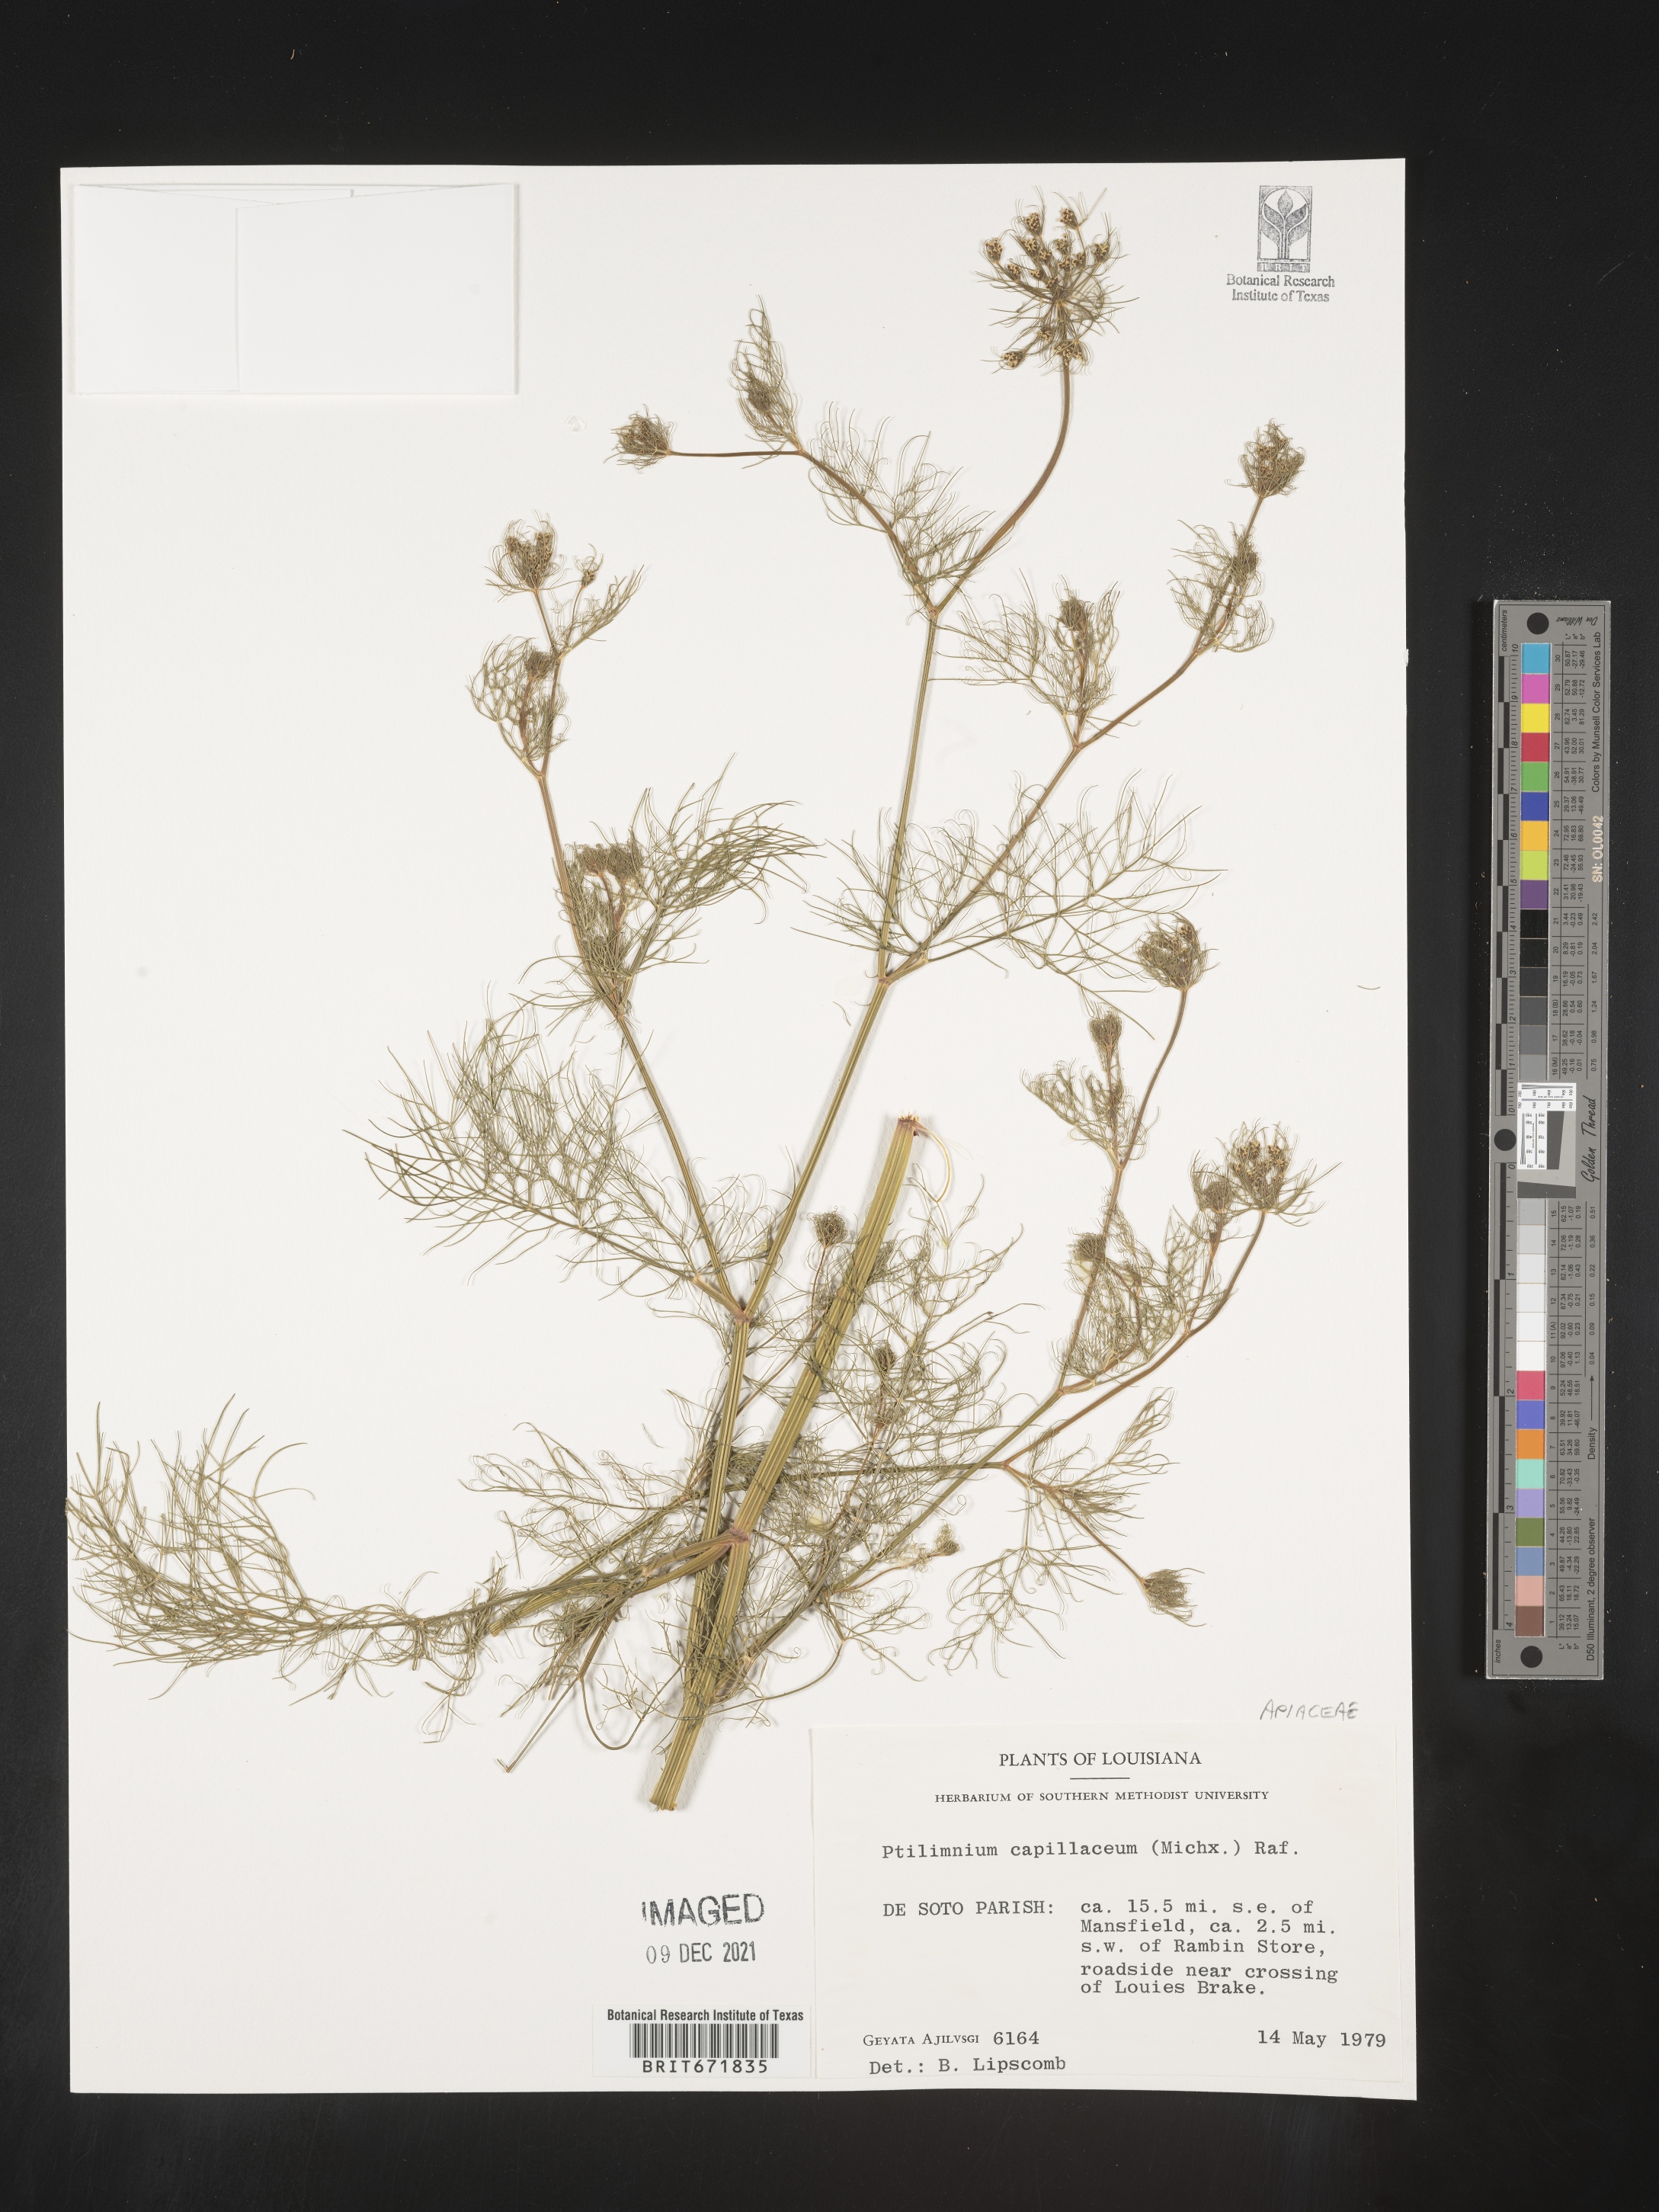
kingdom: Plantae
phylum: Tracheophyta
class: Magnoliopsida
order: Apiales
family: Apiaceae
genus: Ptilimnium
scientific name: Ptilimnium nuttallii
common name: Ozark bishop's-weed
